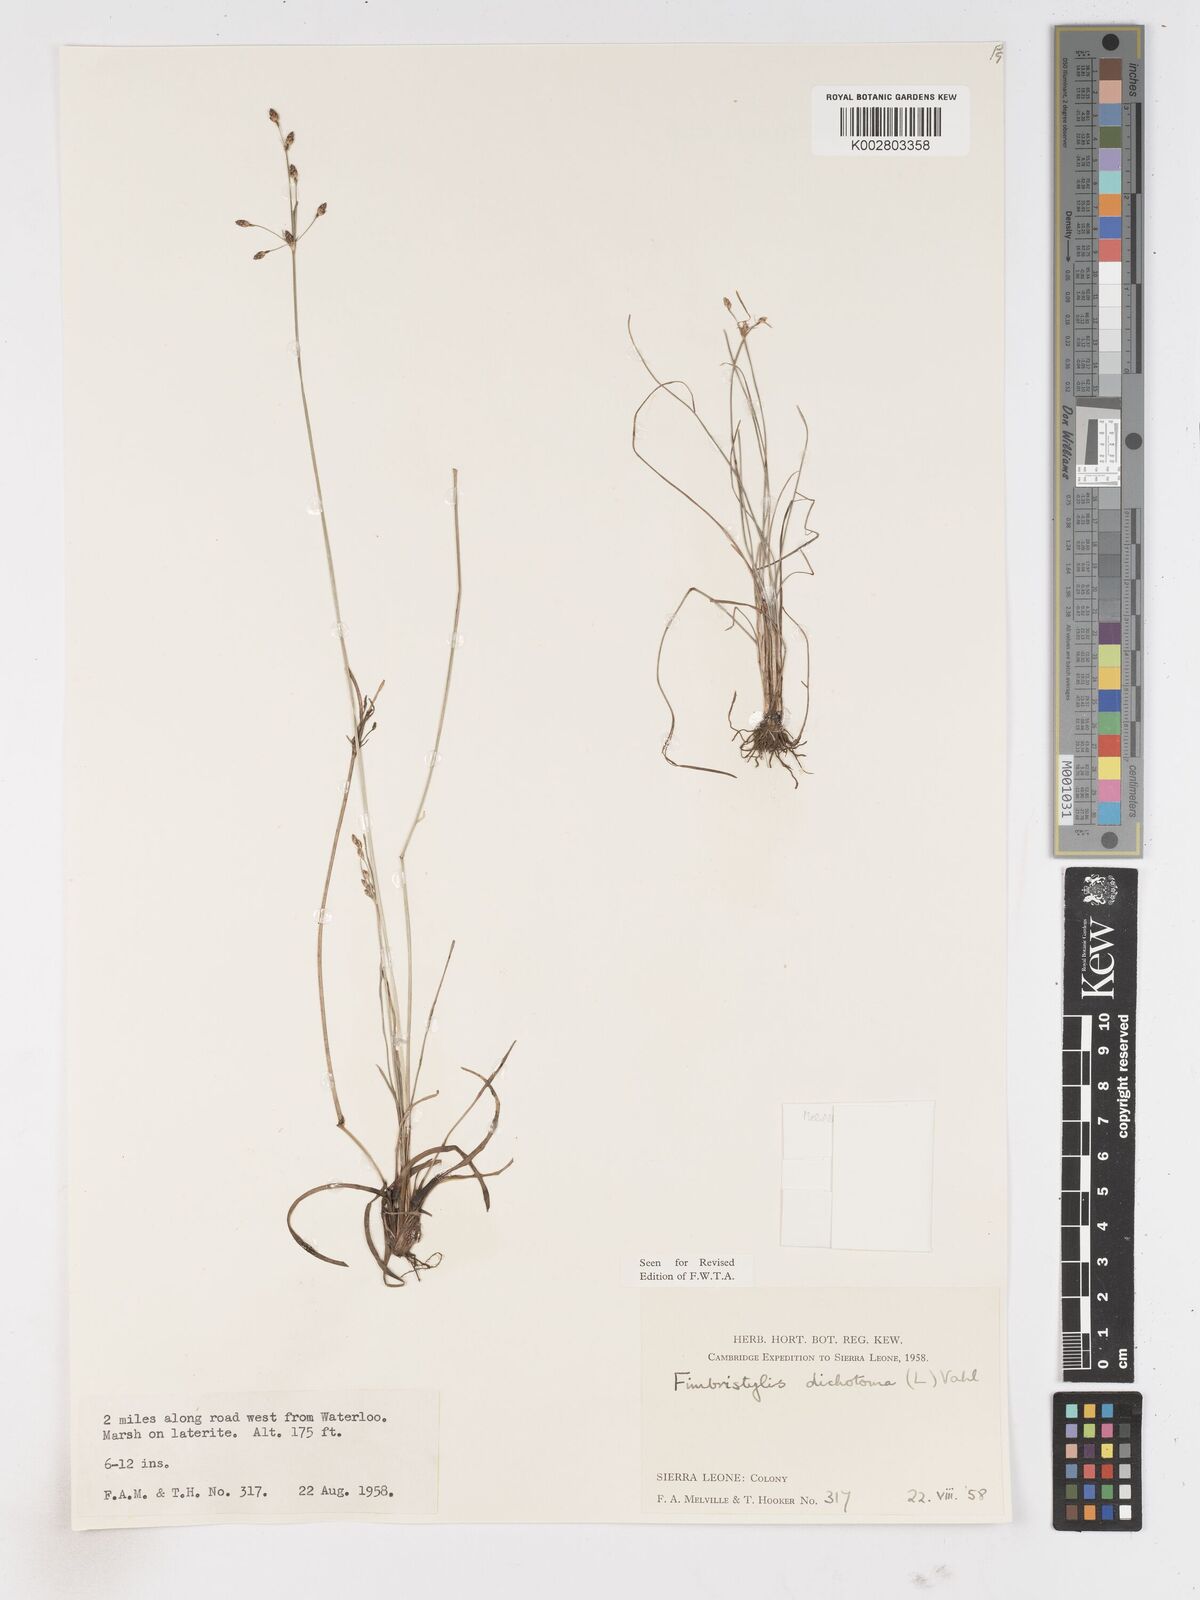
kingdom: Plantae
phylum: Tracheophyta
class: Liliopsida
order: Poales
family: Cyperaceae
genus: Fimbristylis
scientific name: Fimbristylis dichotoma
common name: Forked fimbry
